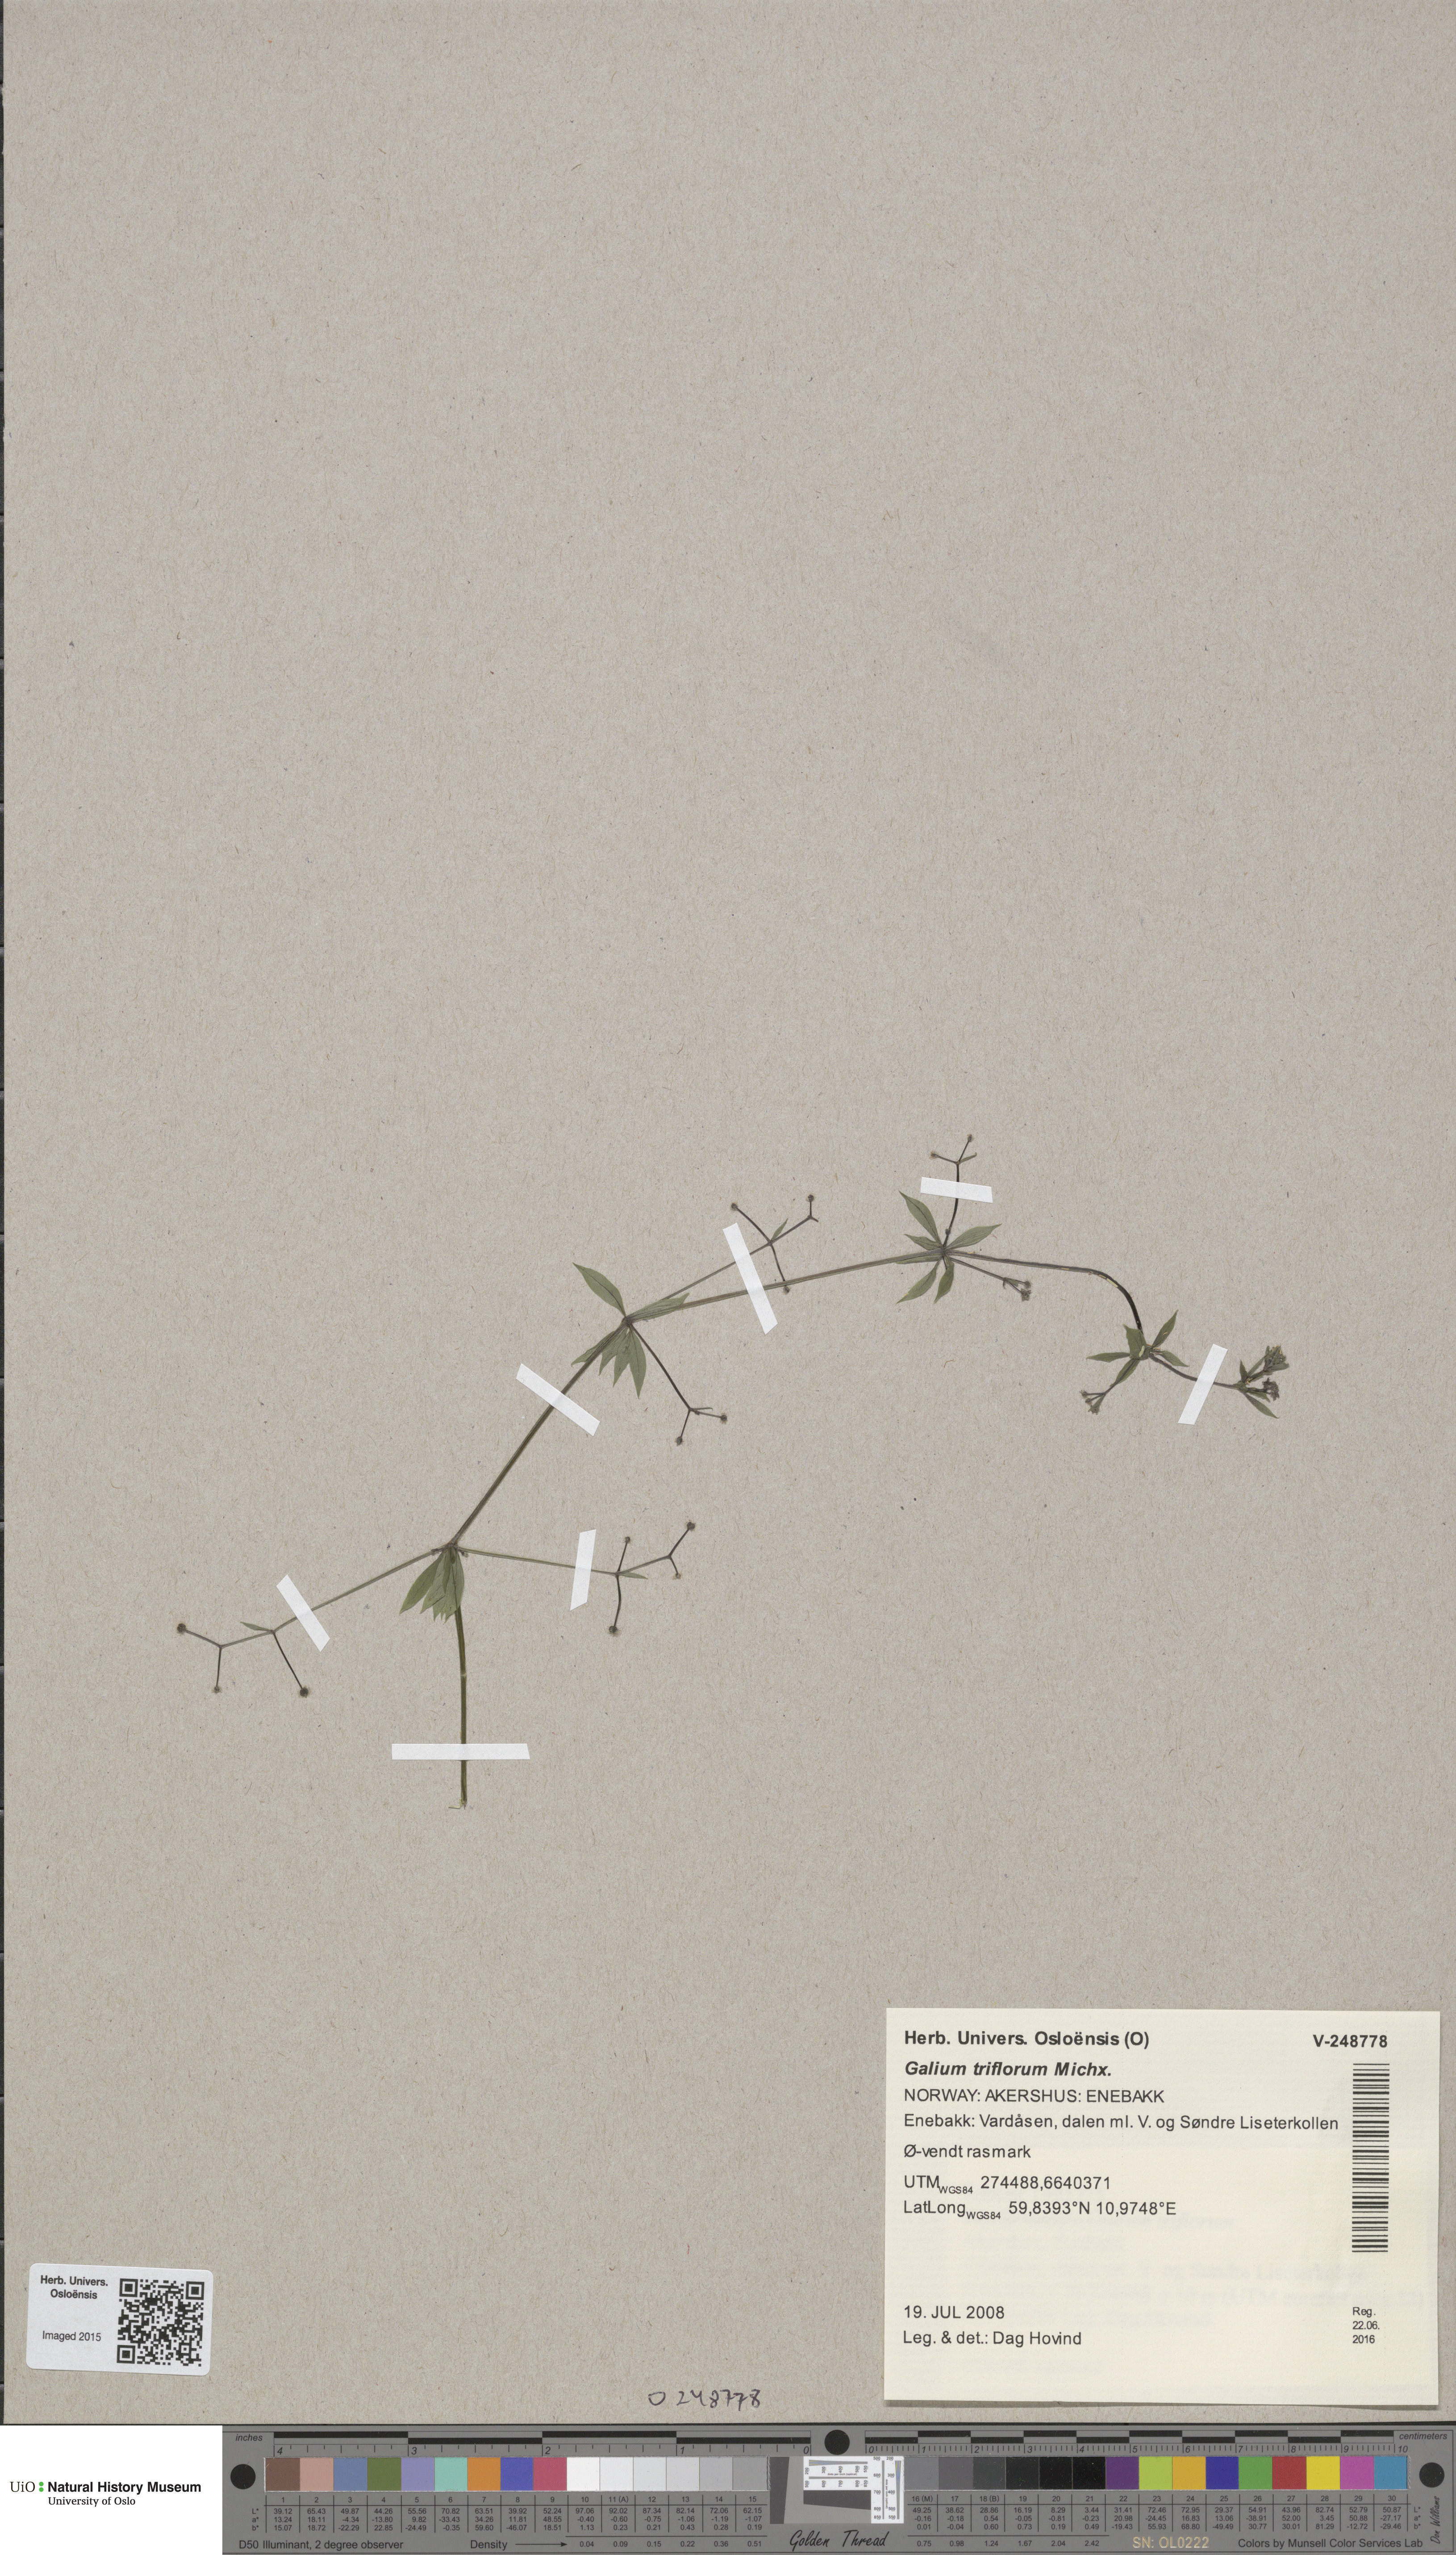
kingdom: Plantae
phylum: Tracheophyta
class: Magnoliopsida
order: Gentianales
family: Rubiaceae
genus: Galium
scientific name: Galium triflorum
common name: Fragrant bedstraw
